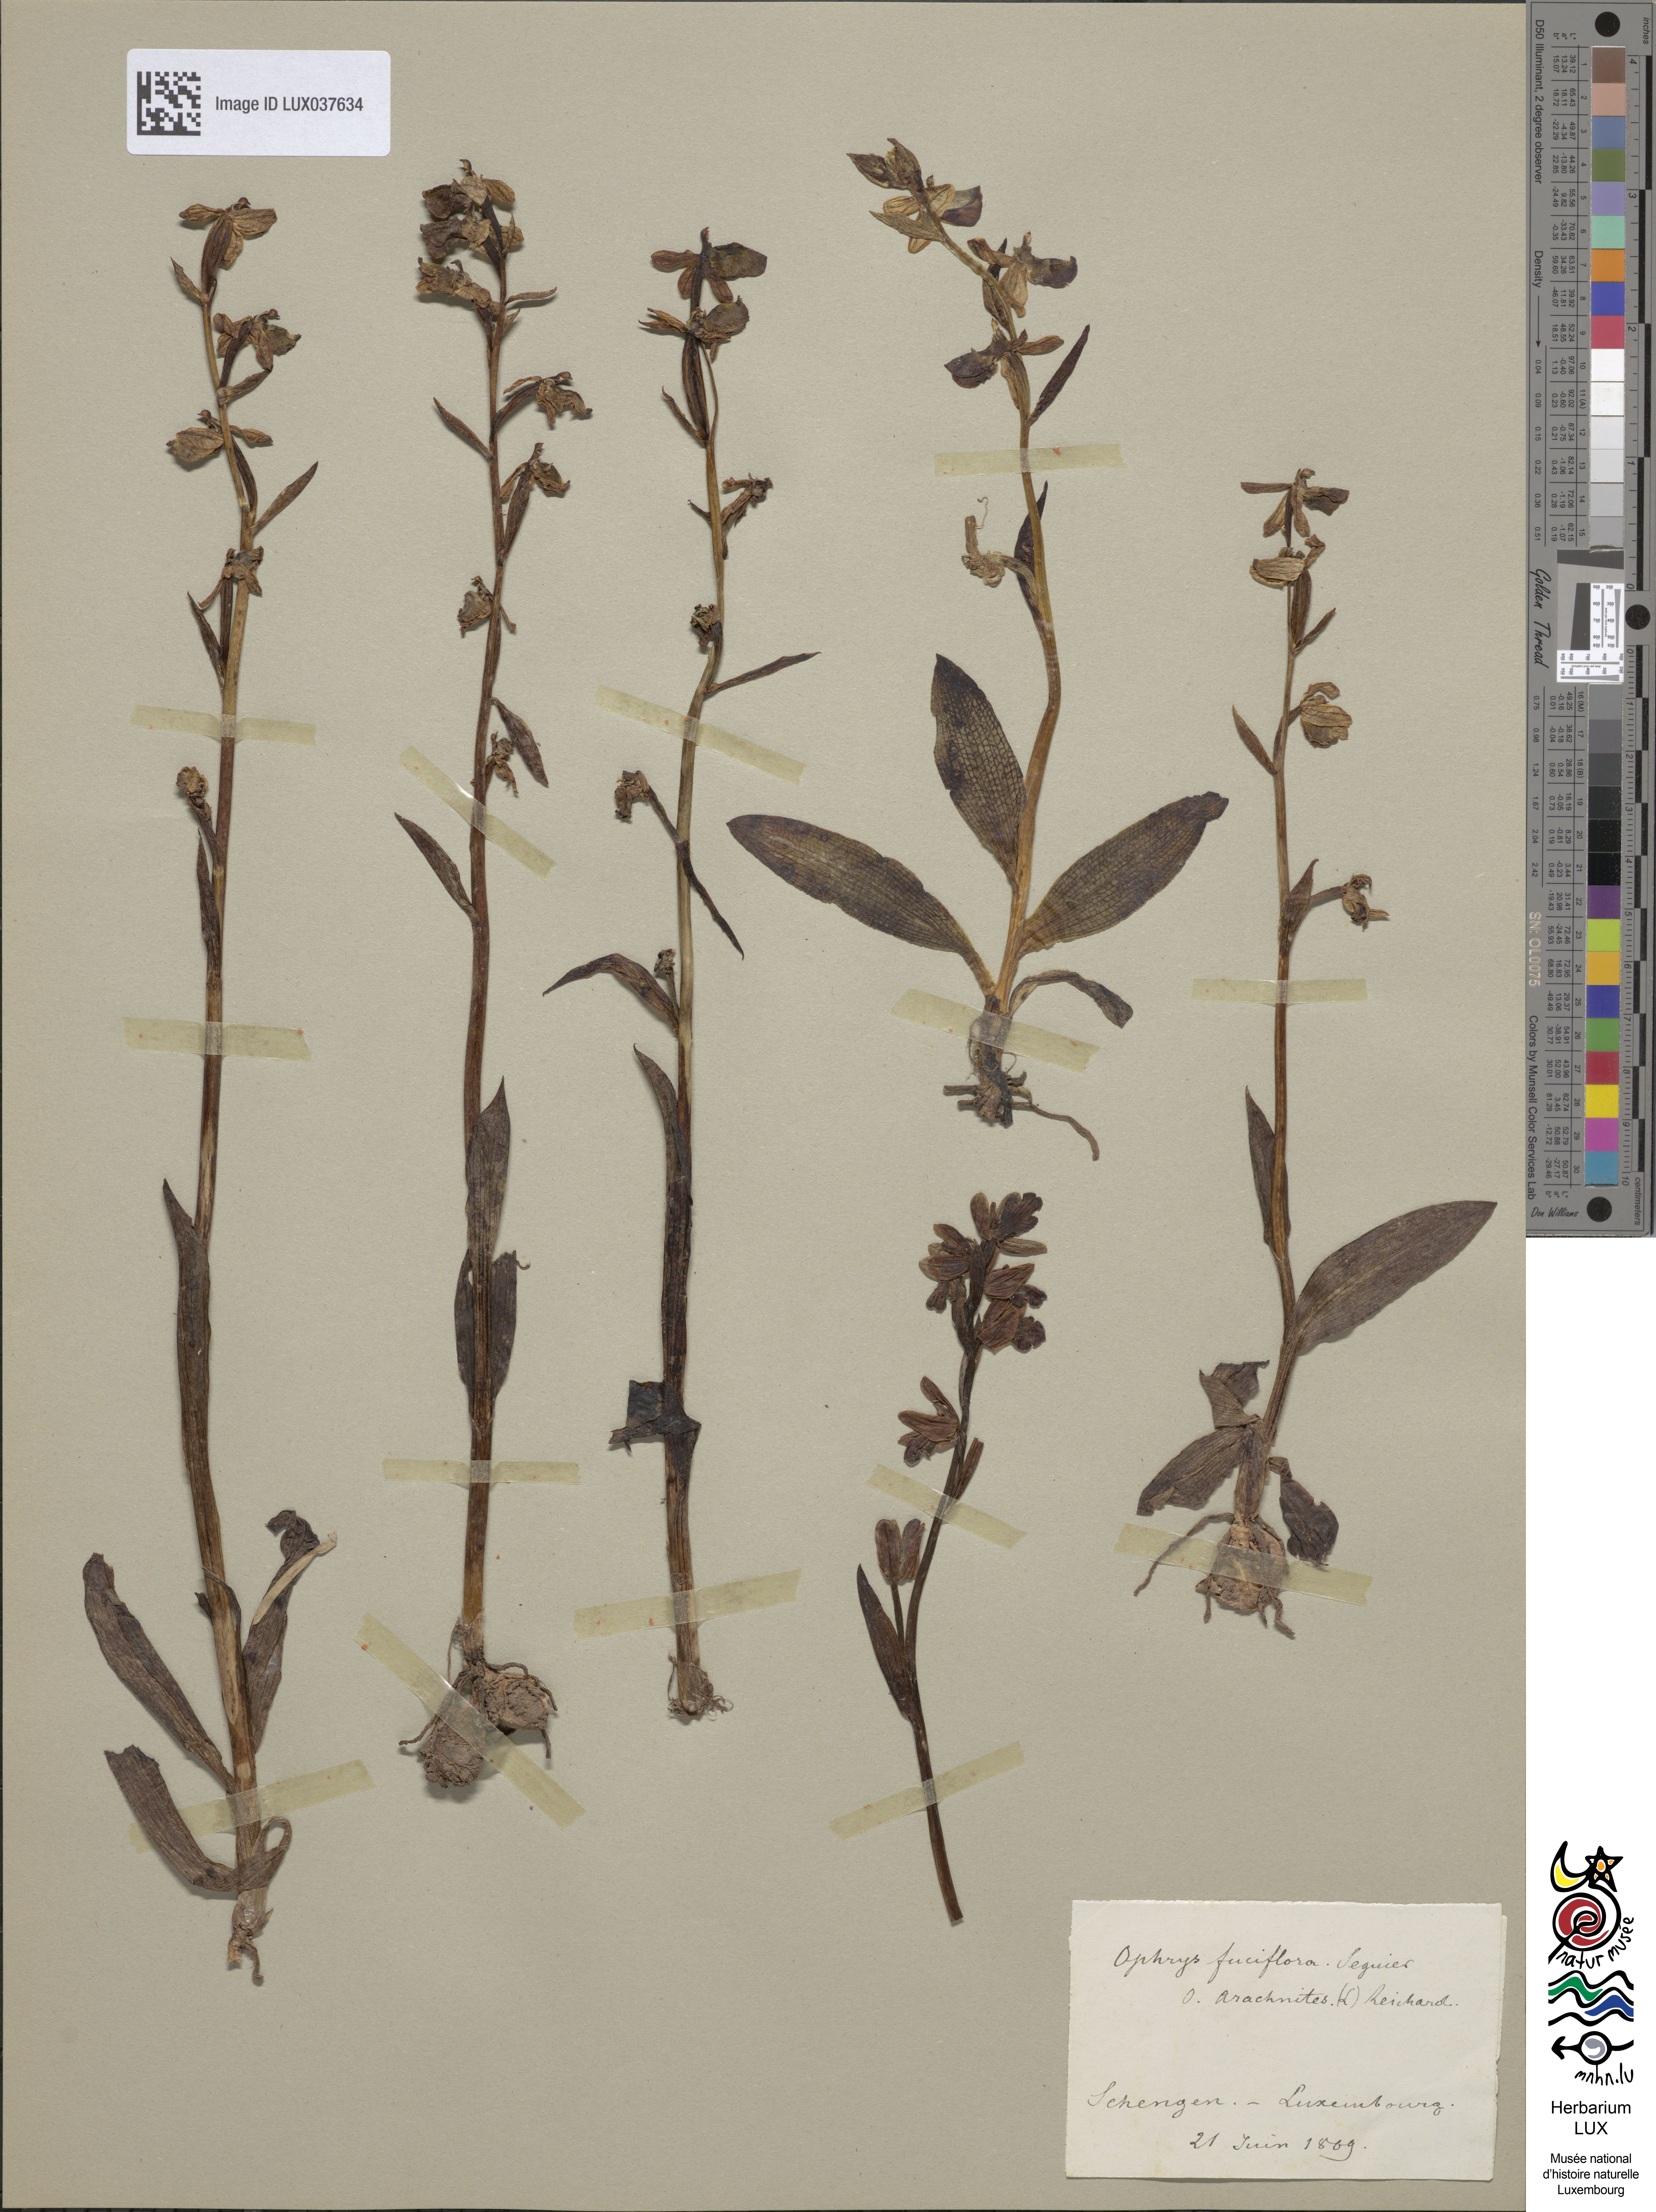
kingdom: Plantae
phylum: Tracheophyta
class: Liliopsida
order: Asparagales
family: Orchidaceae
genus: Ophrys
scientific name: Ophrys holosericea
